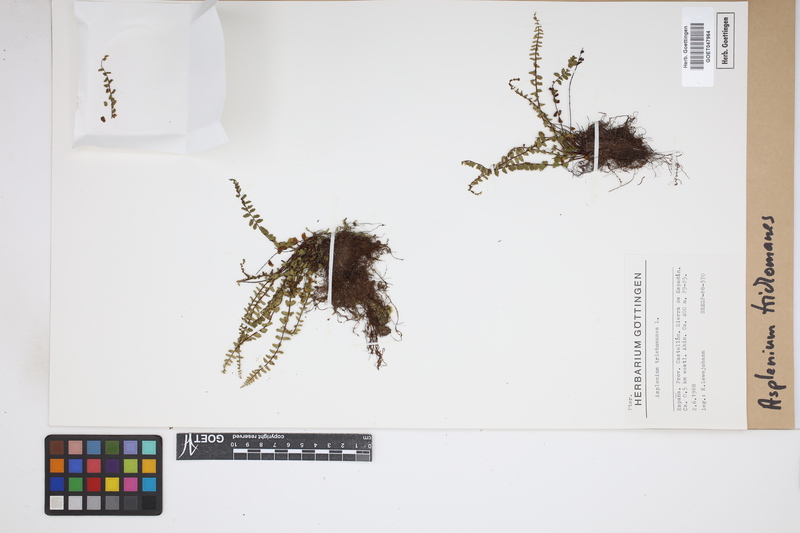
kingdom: Plantae
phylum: Tracheophyta
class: Polypodiopsida
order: Polypodiales
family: Aspleniaceae
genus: Asplenium
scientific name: Asplenium trichomanes
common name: Maidenhair spleenwort
